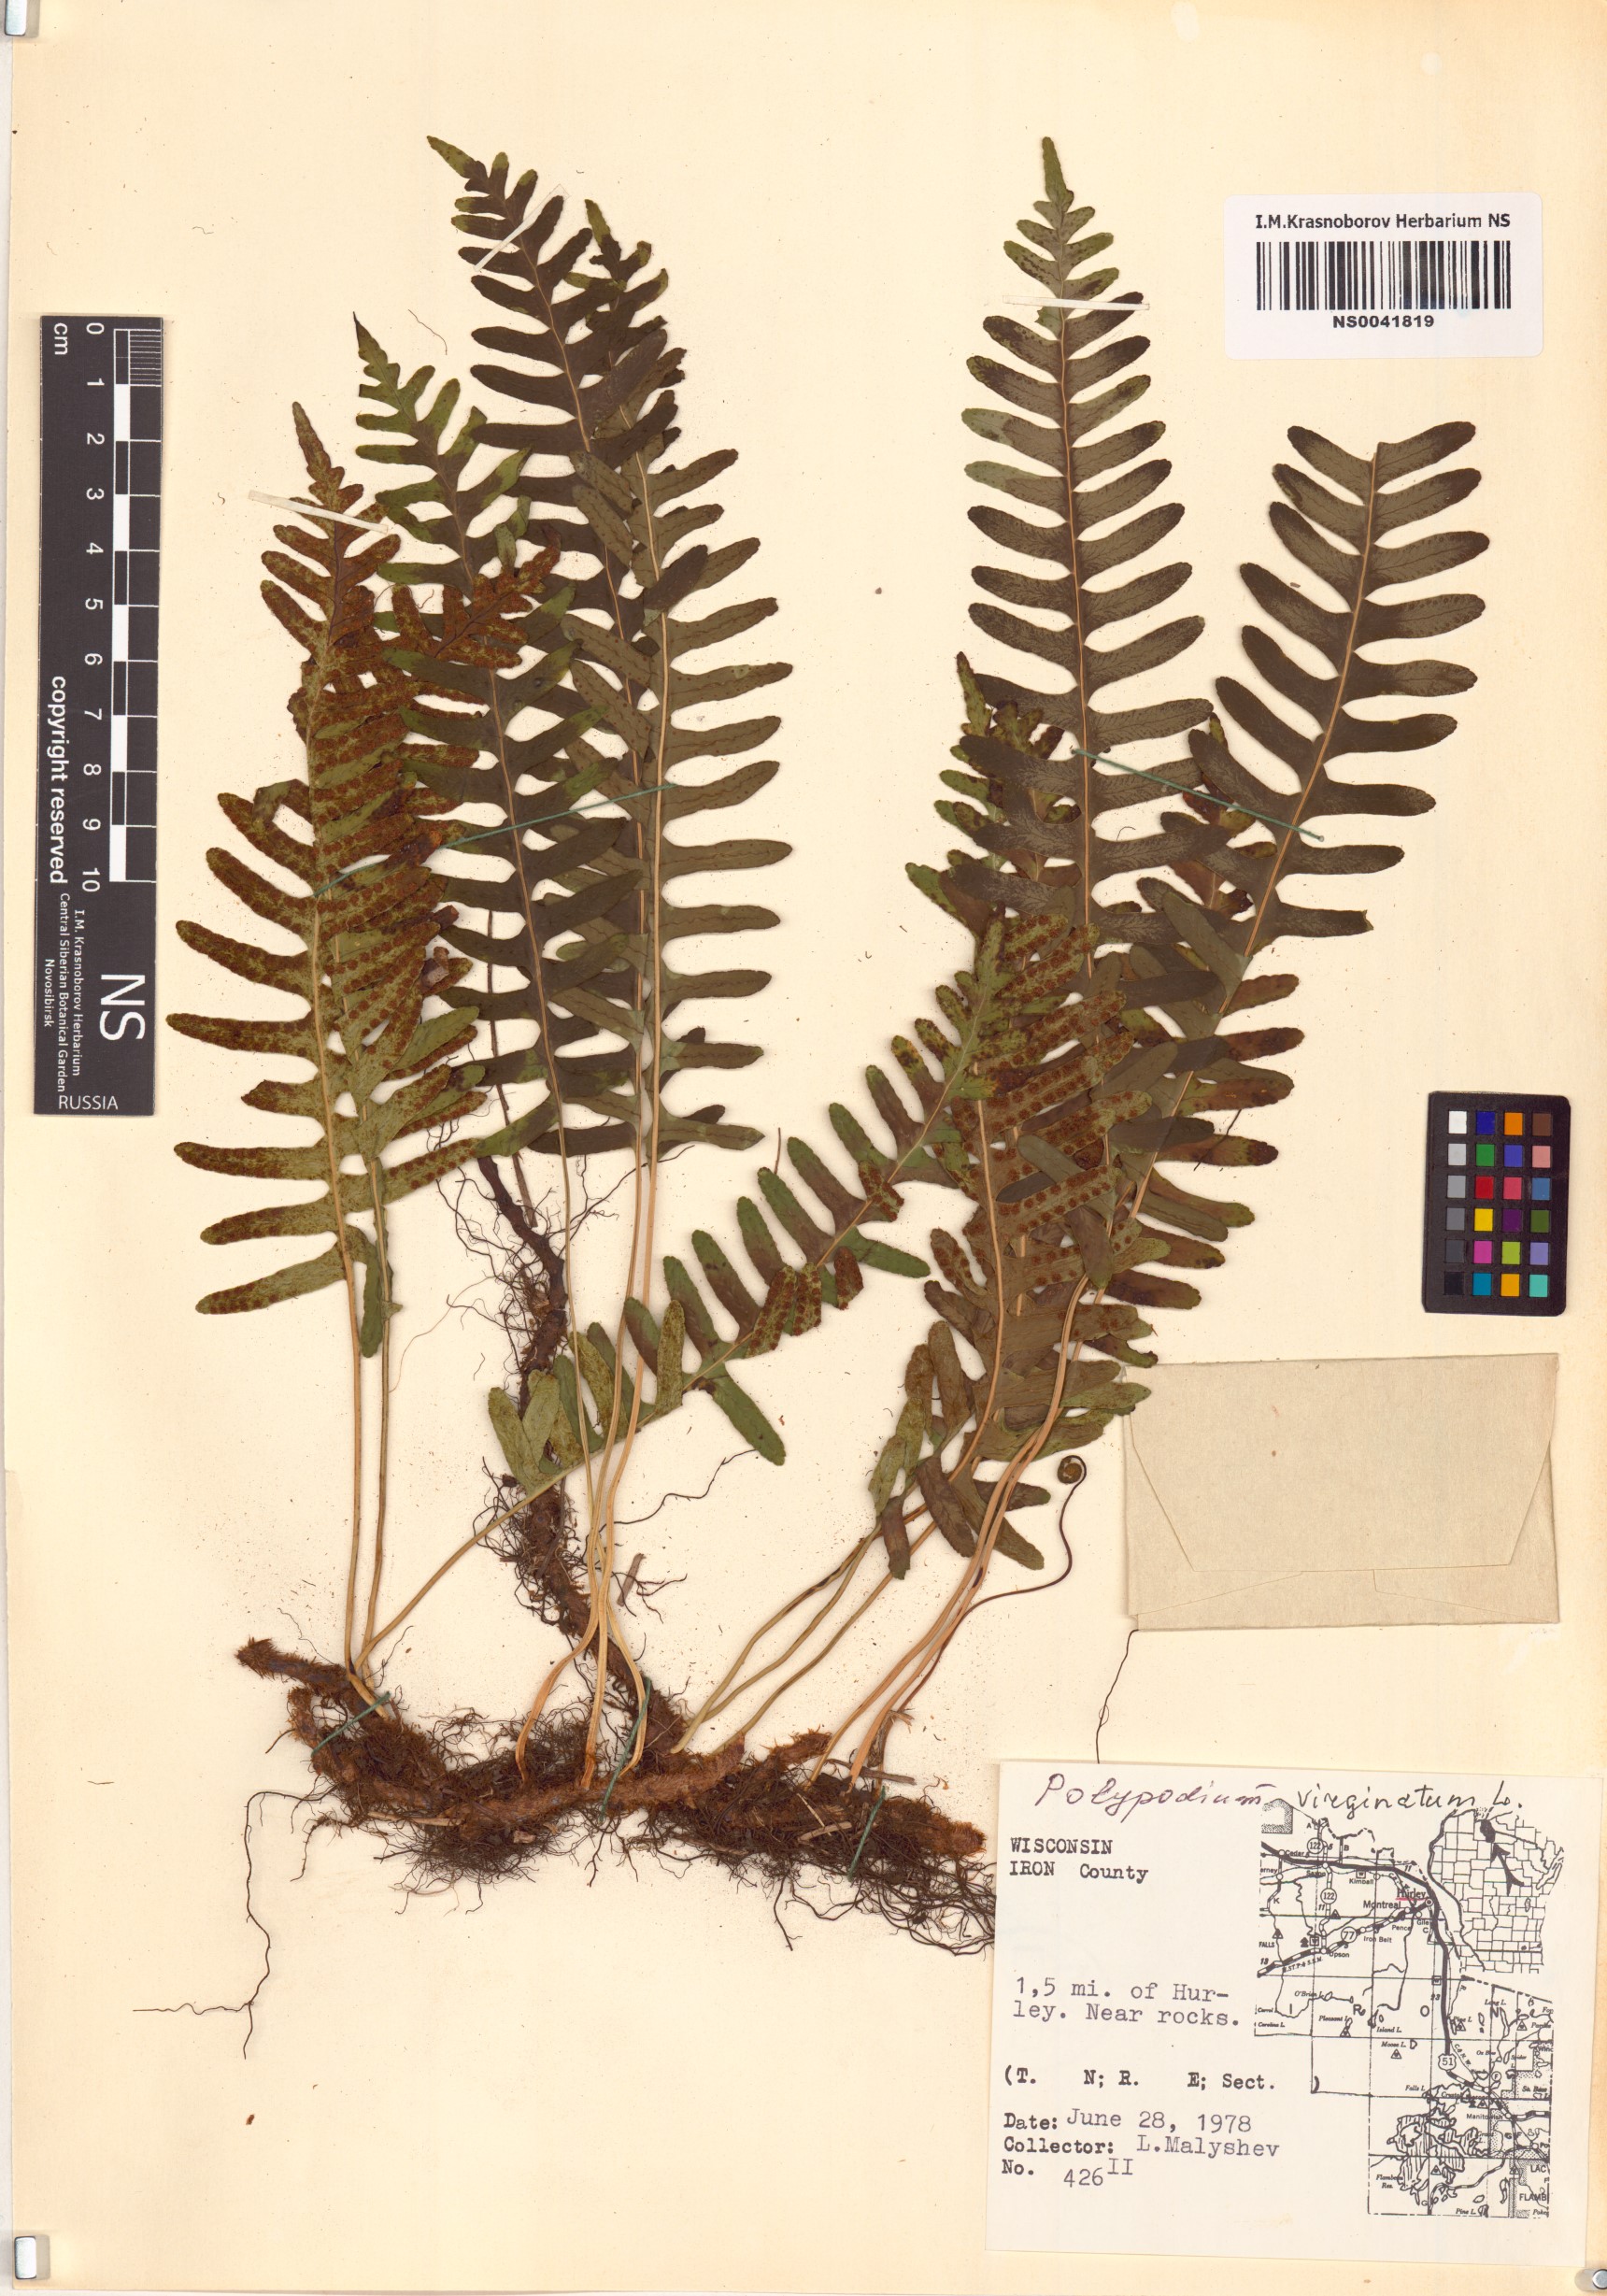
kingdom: Plantae
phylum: Tracheophyta
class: Polypodiopsida
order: Polypodiales
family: Polypodiaceae
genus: Polypodium
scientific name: Polypodium virginianum
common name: American wall fern
